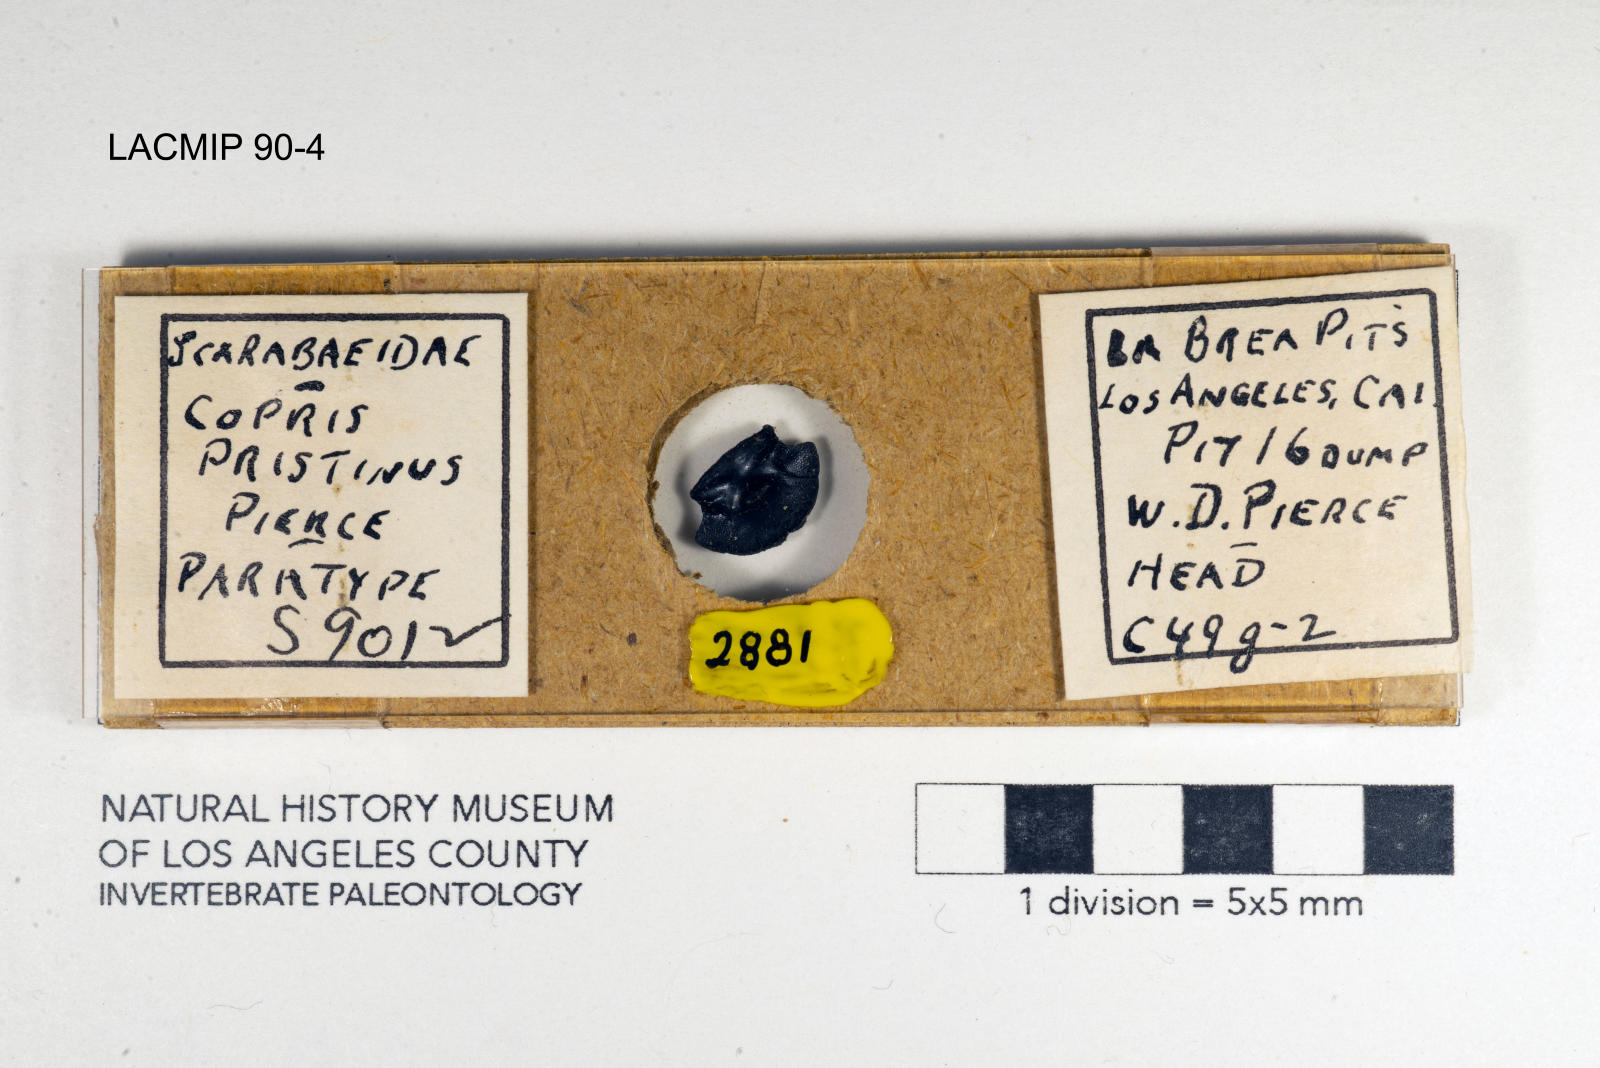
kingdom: Animalia
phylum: Arthropoda
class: Insecta
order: Coleoptera
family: Scarabaeidae
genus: Copris
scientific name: Copris pristinus
